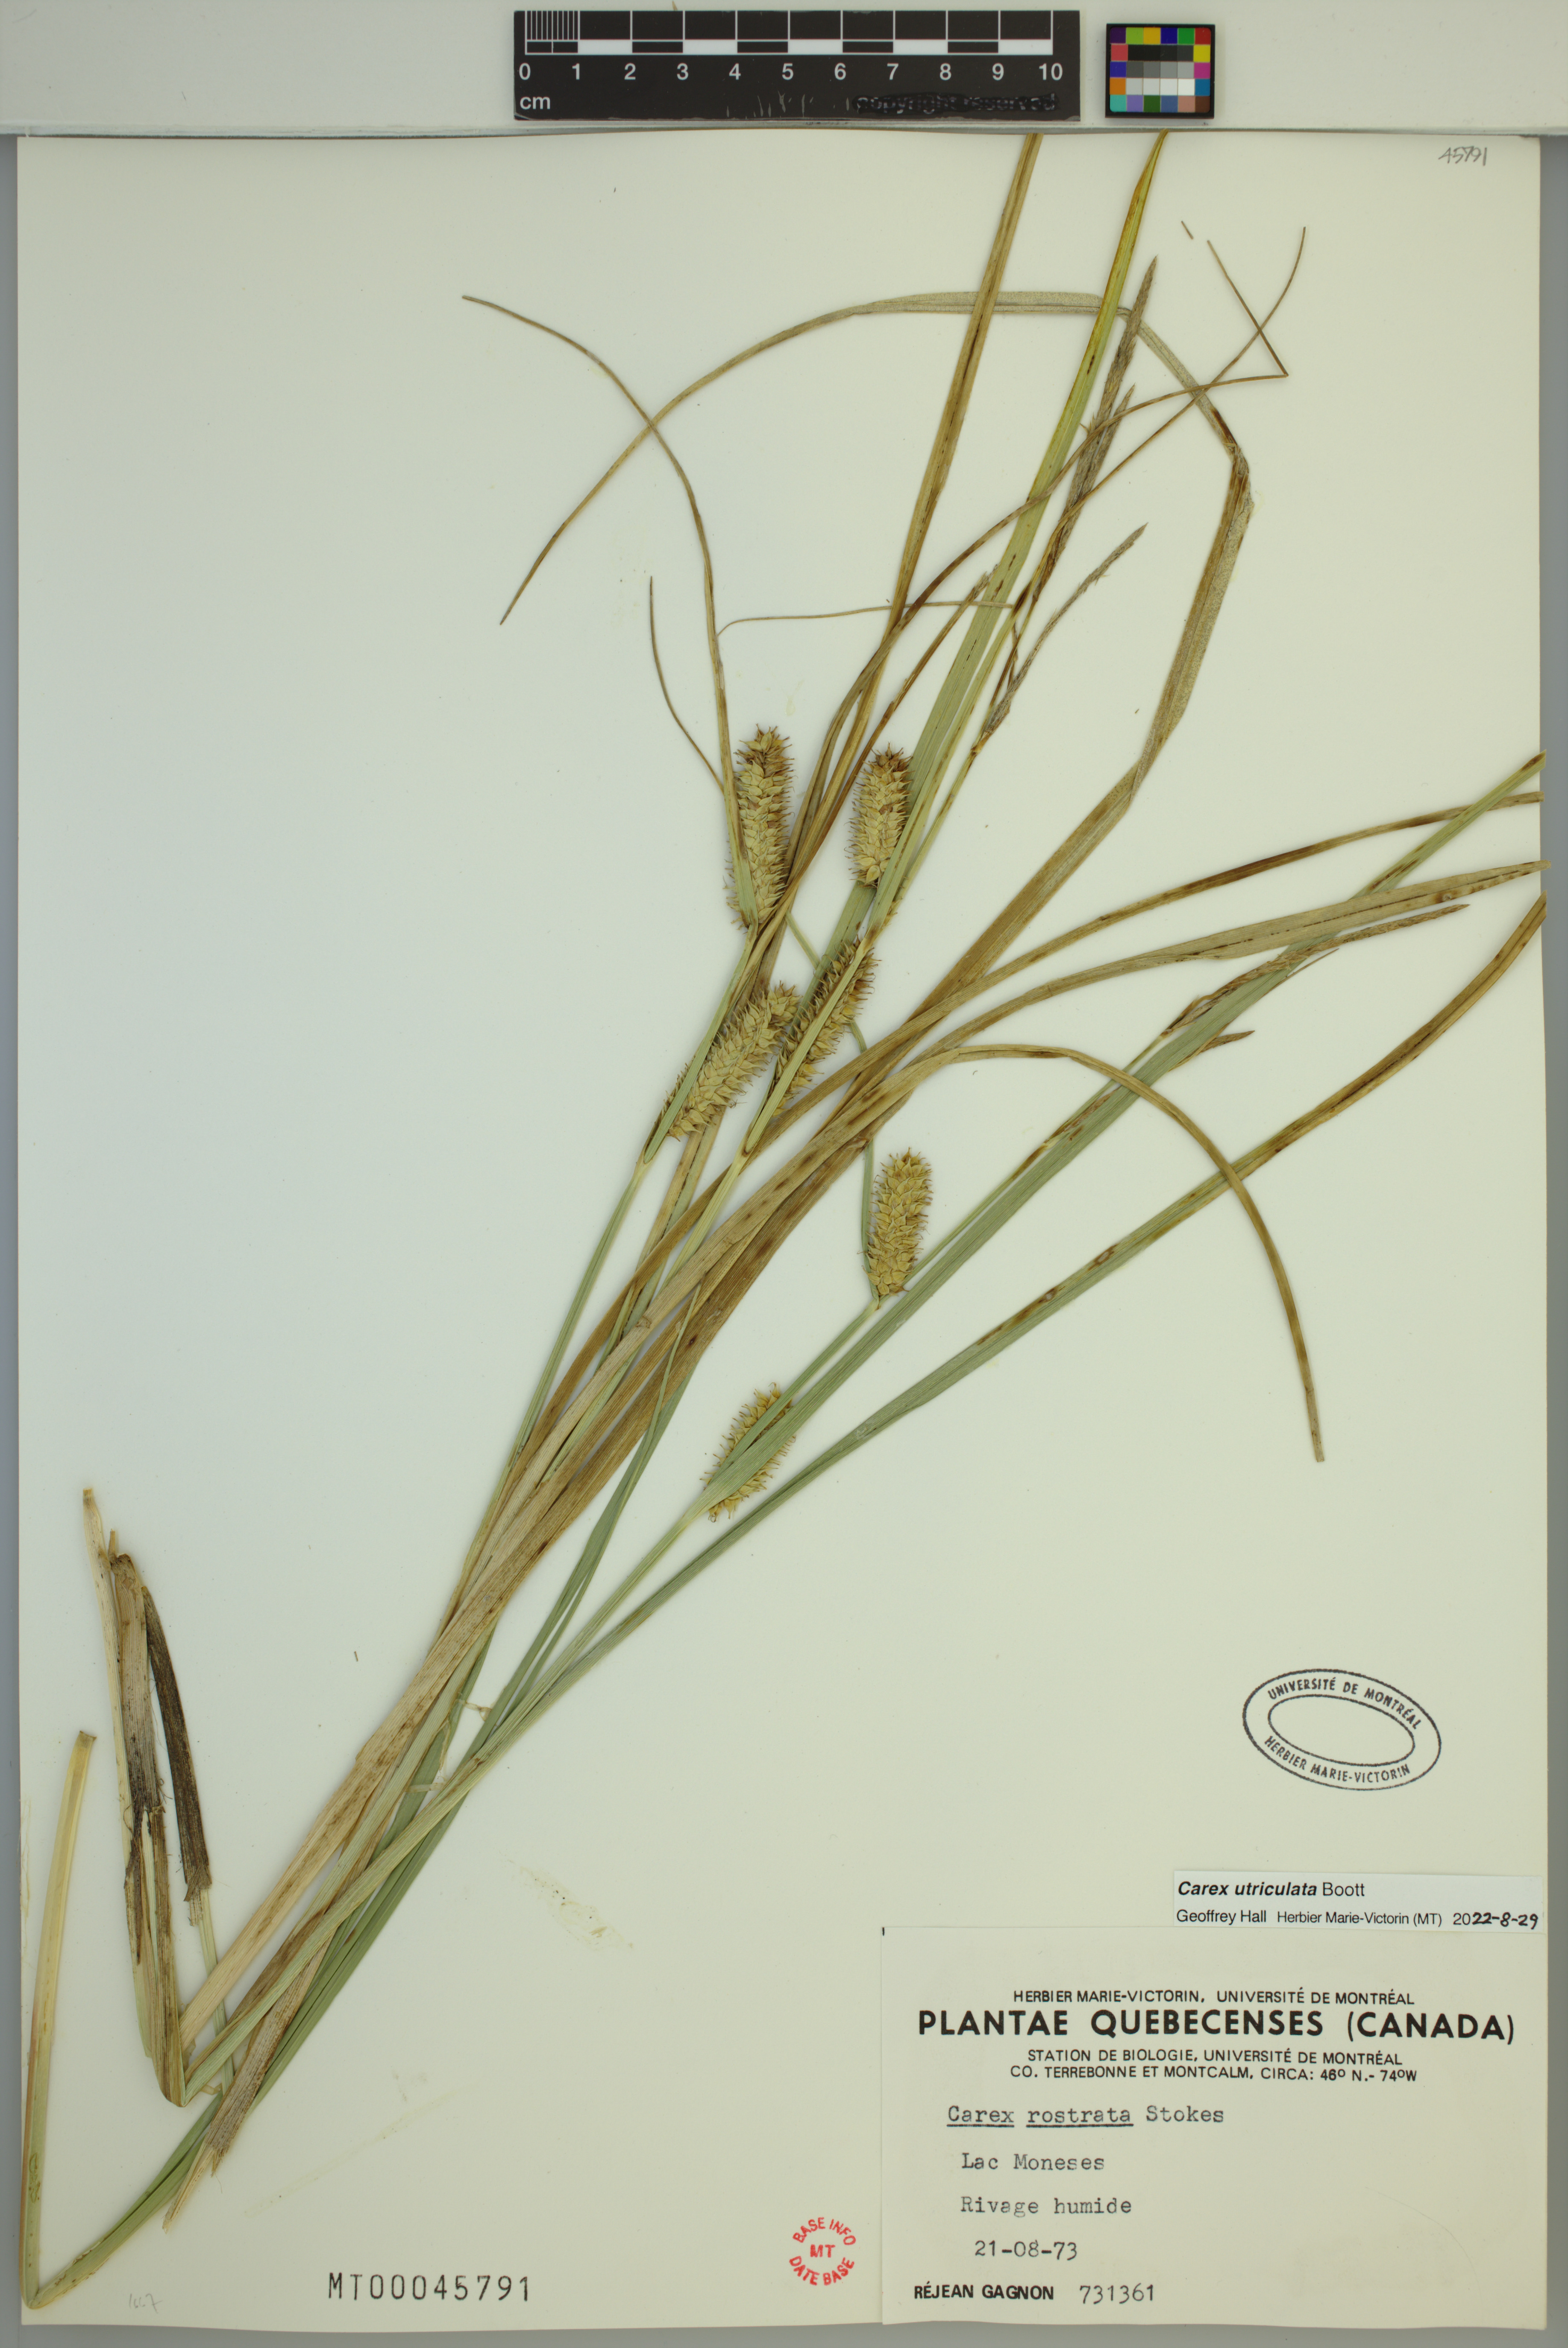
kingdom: Plantae
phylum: Tracheophyta
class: Liliopsida
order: Poales
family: Cyperaceae
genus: Carex
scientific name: Carex utriculata
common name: Beaked sedge
